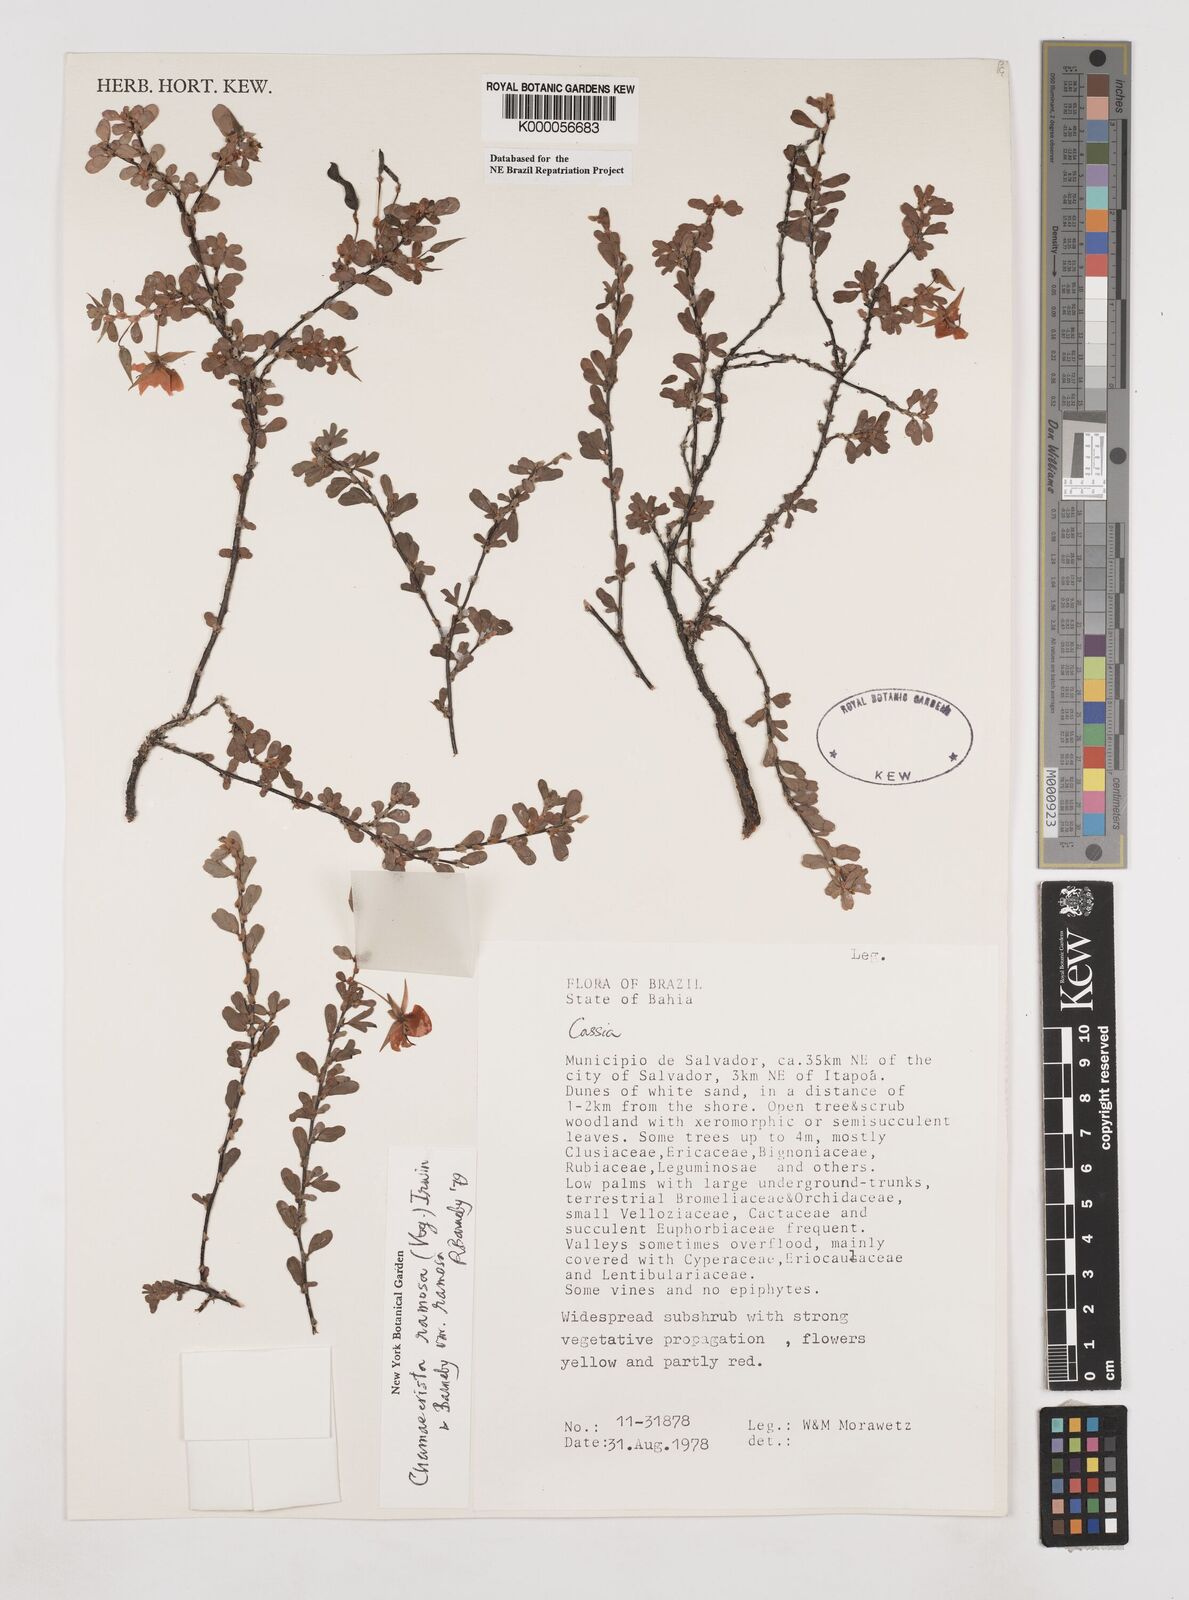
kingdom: Plantae
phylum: Tracheophyta
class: Magnoliopsida
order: Fabales
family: Fabaceae
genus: Chamaecrista
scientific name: Chamaecrista ramosa
